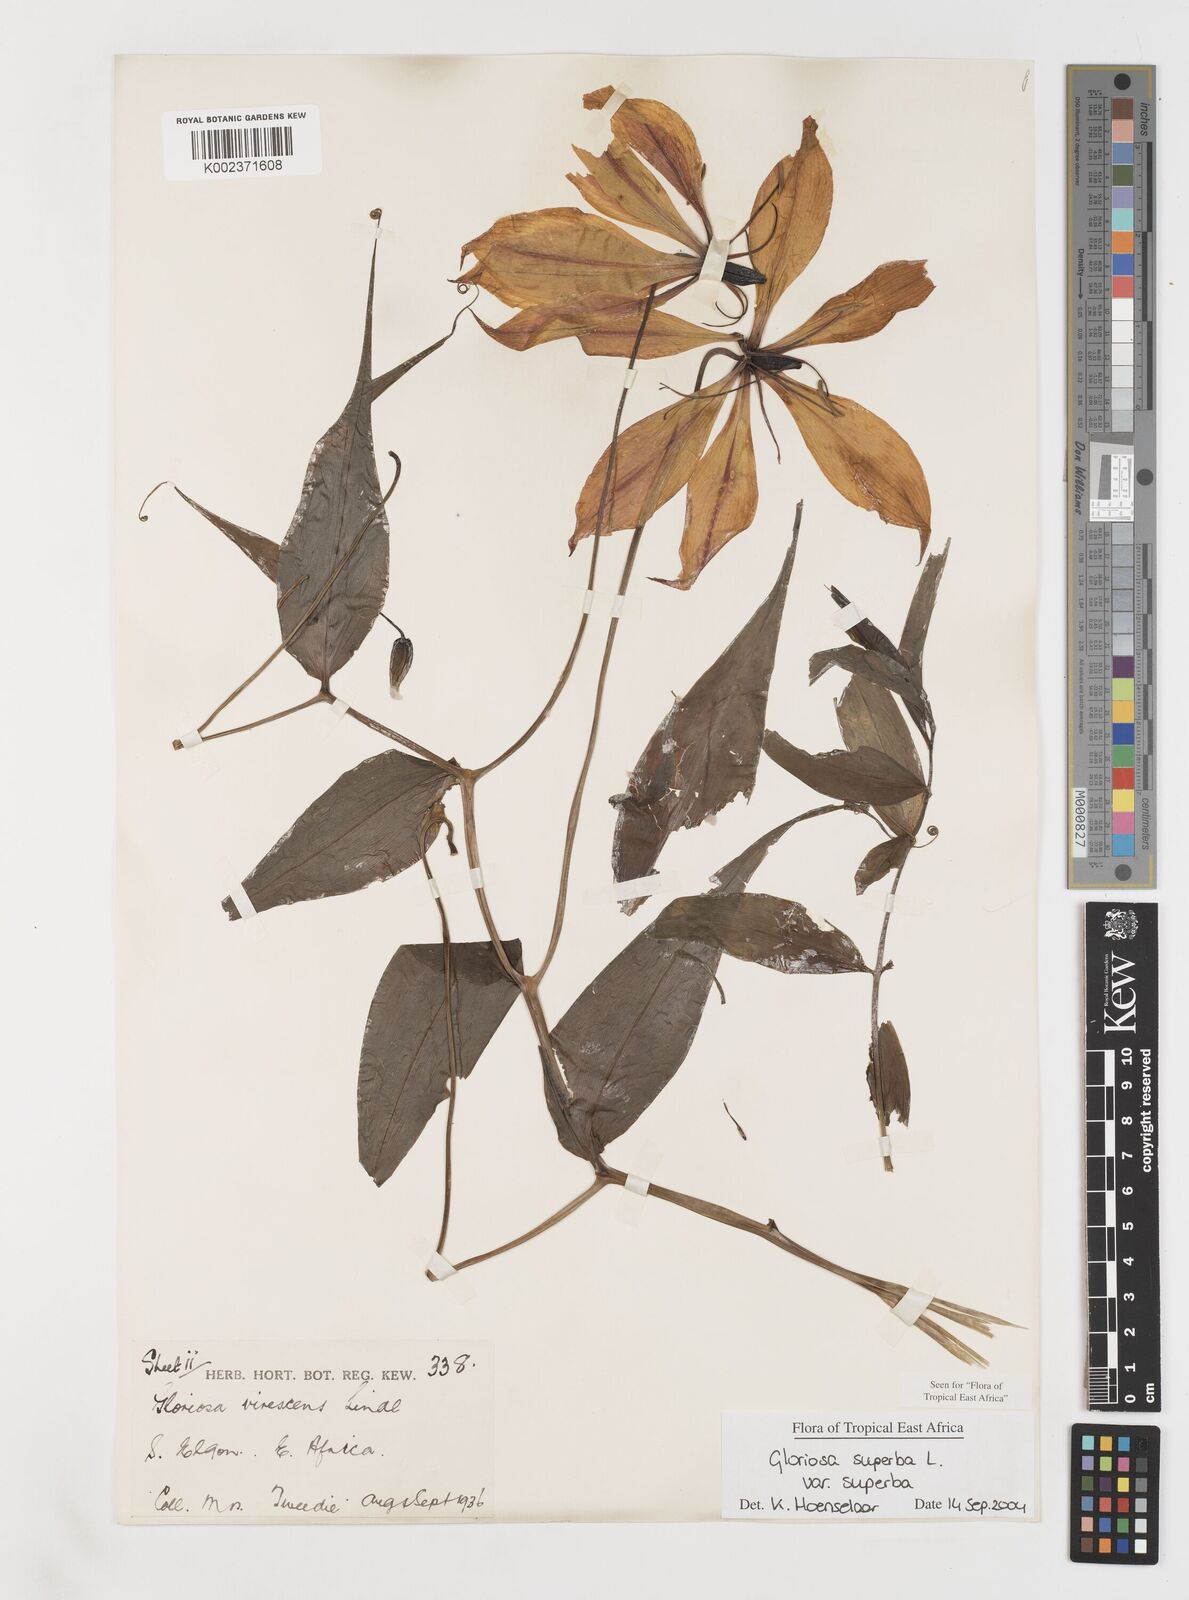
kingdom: Plantae
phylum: Tracheophyta
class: Liliopsida
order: Liliales
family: Colchicaceae
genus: Gloriosa
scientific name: Gloriosa simplex
